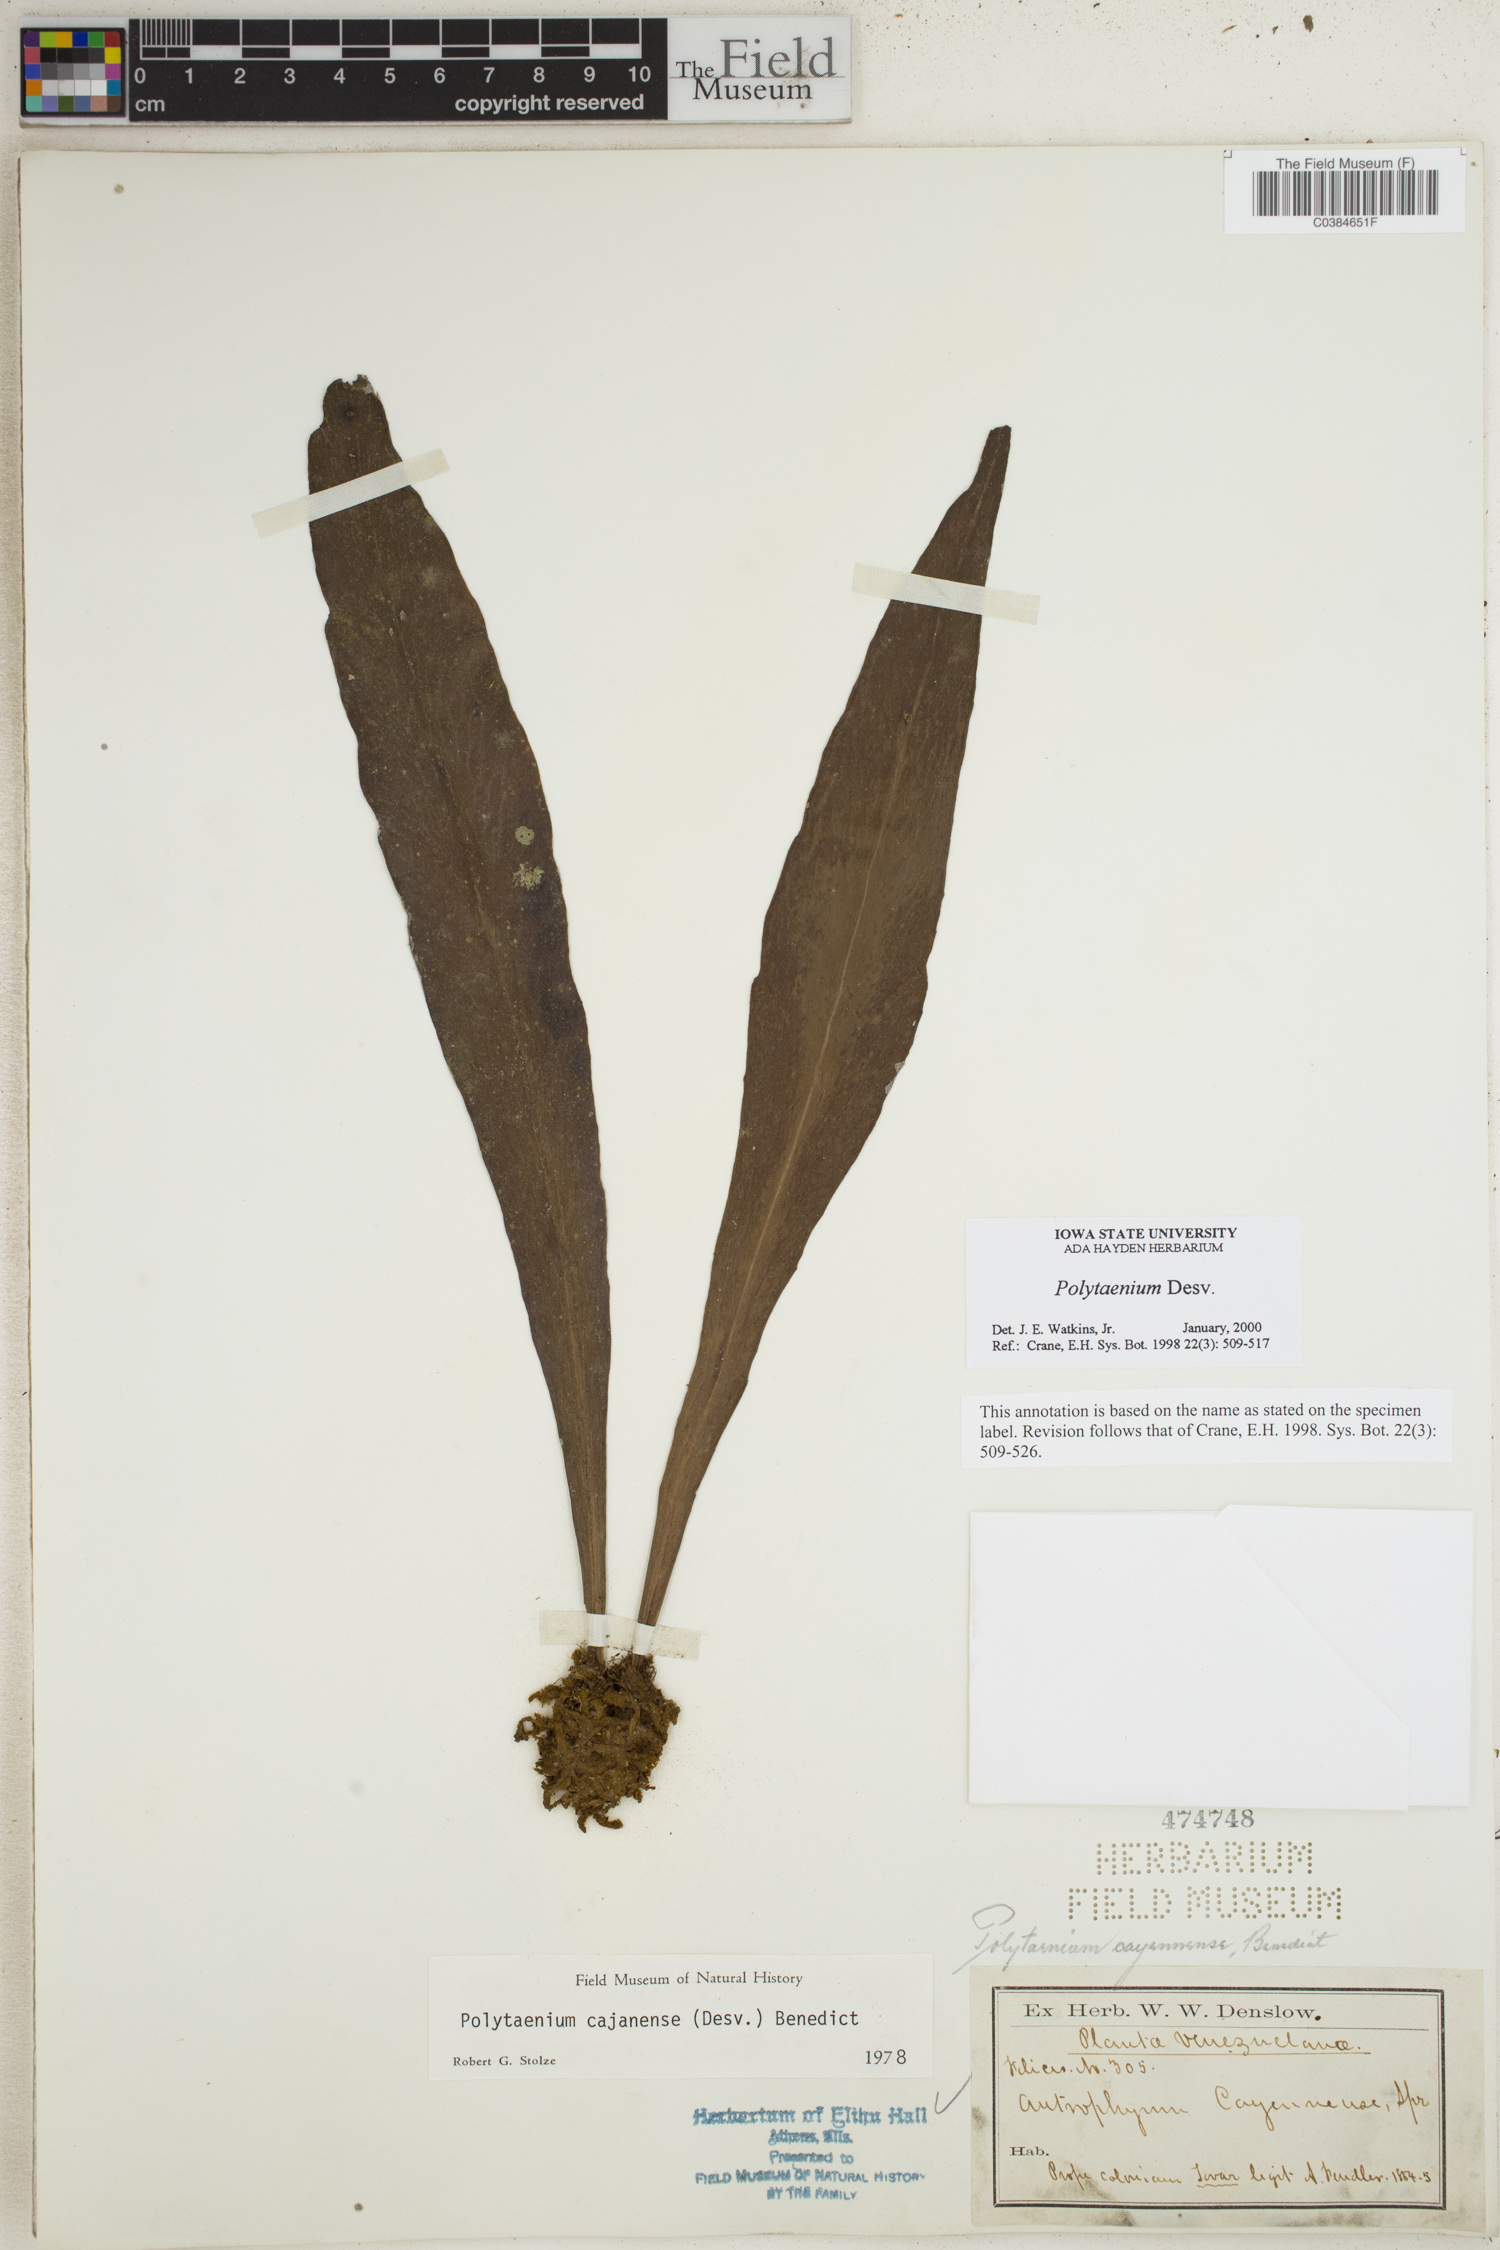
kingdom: Plantae
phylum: Tracheophyta
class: Polypodiopsida
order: Polypodiales
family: Pteridaceae
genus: Polytaenium
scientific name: Polytaenium
